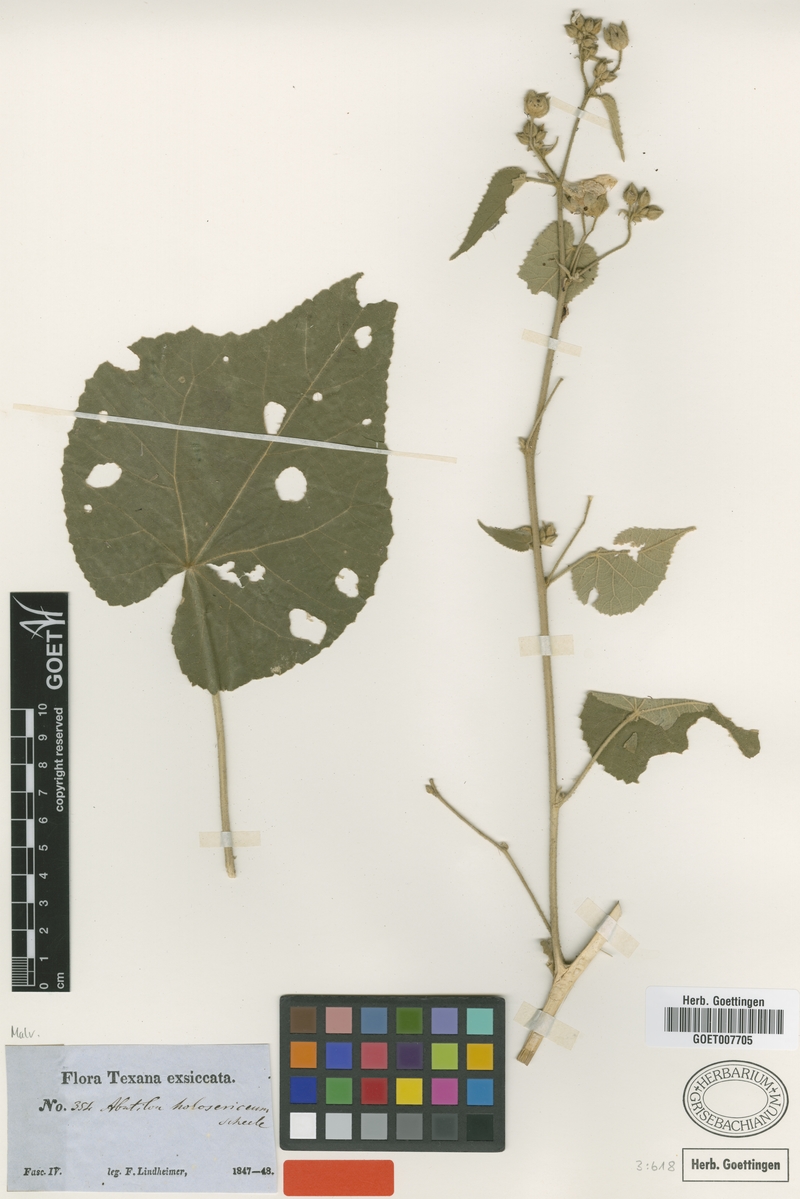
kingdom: Plantae
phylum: Tracheophyta
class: Magnoliopsida
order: Malvales
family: Malvaceae
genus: Allowissadula
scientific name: Allowissadula holosericea
